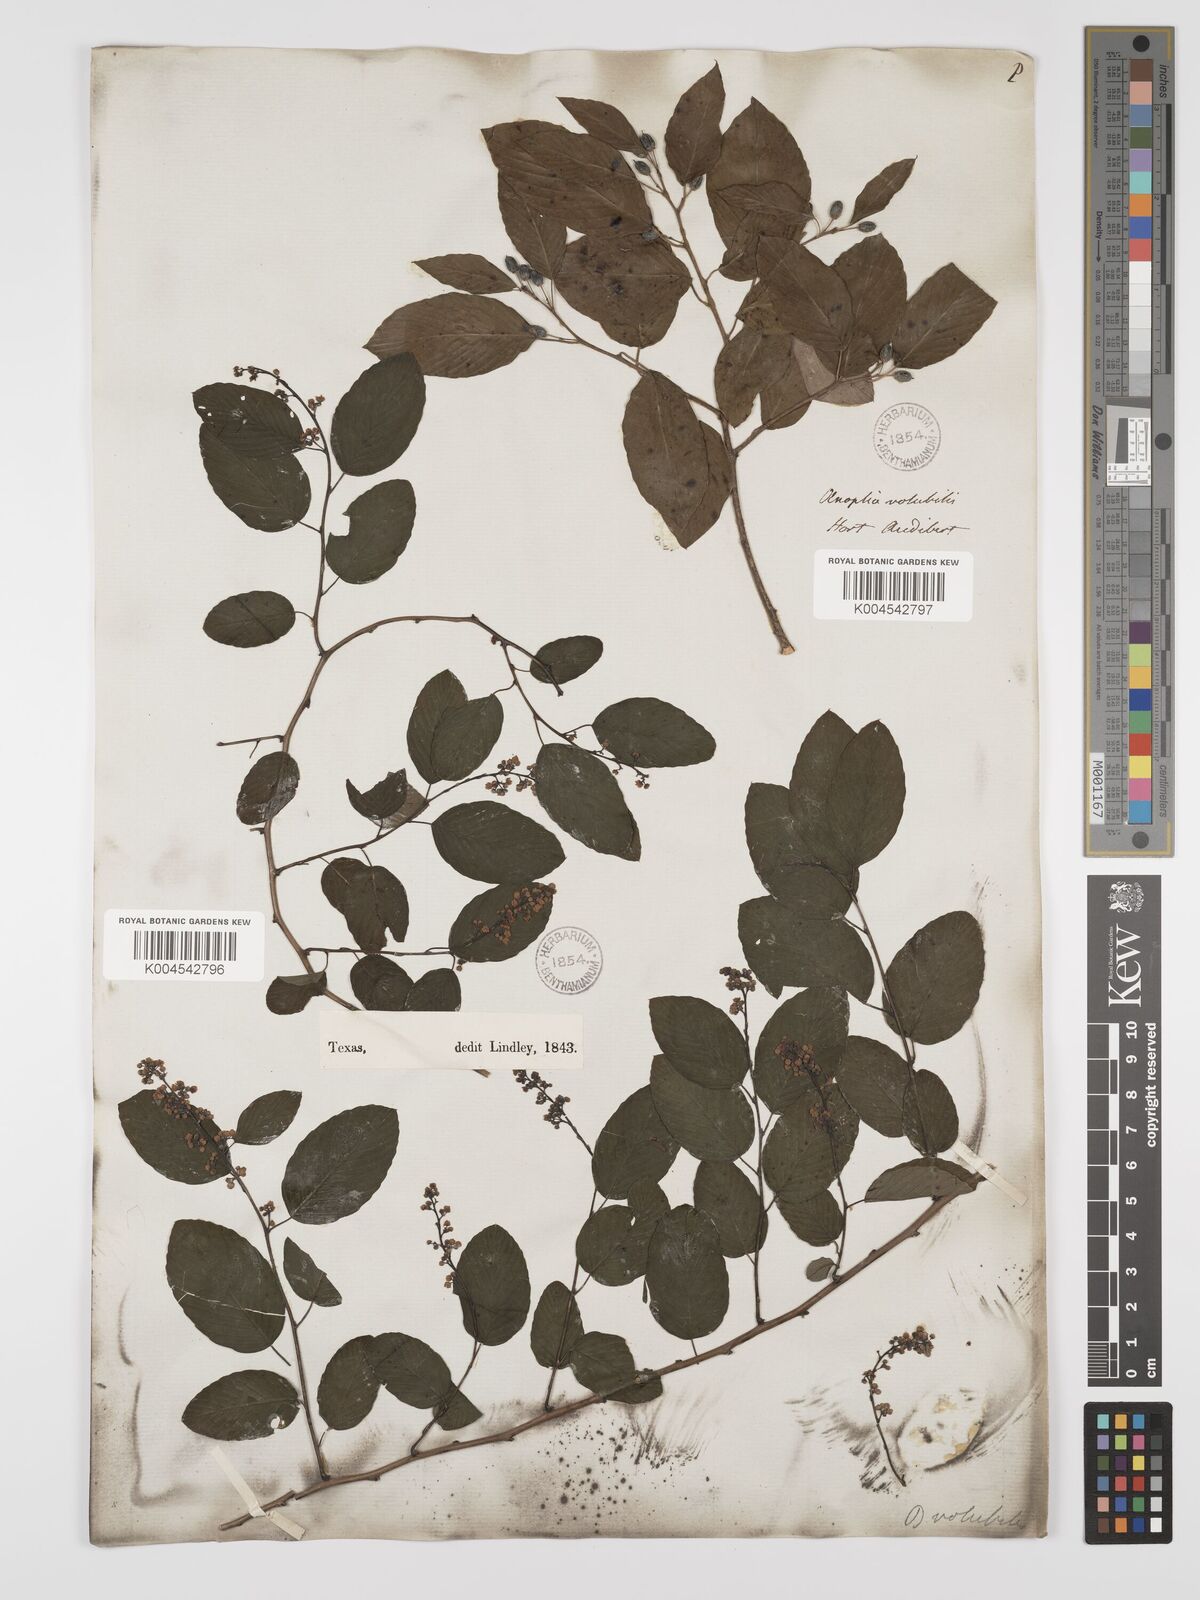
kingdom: Plantae
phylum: Tracheophyta
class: Magnoliopsida
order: Rosales
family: Rhamnaceae
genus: Berchemia
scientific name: Berchemia scandens
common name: Supplejack
